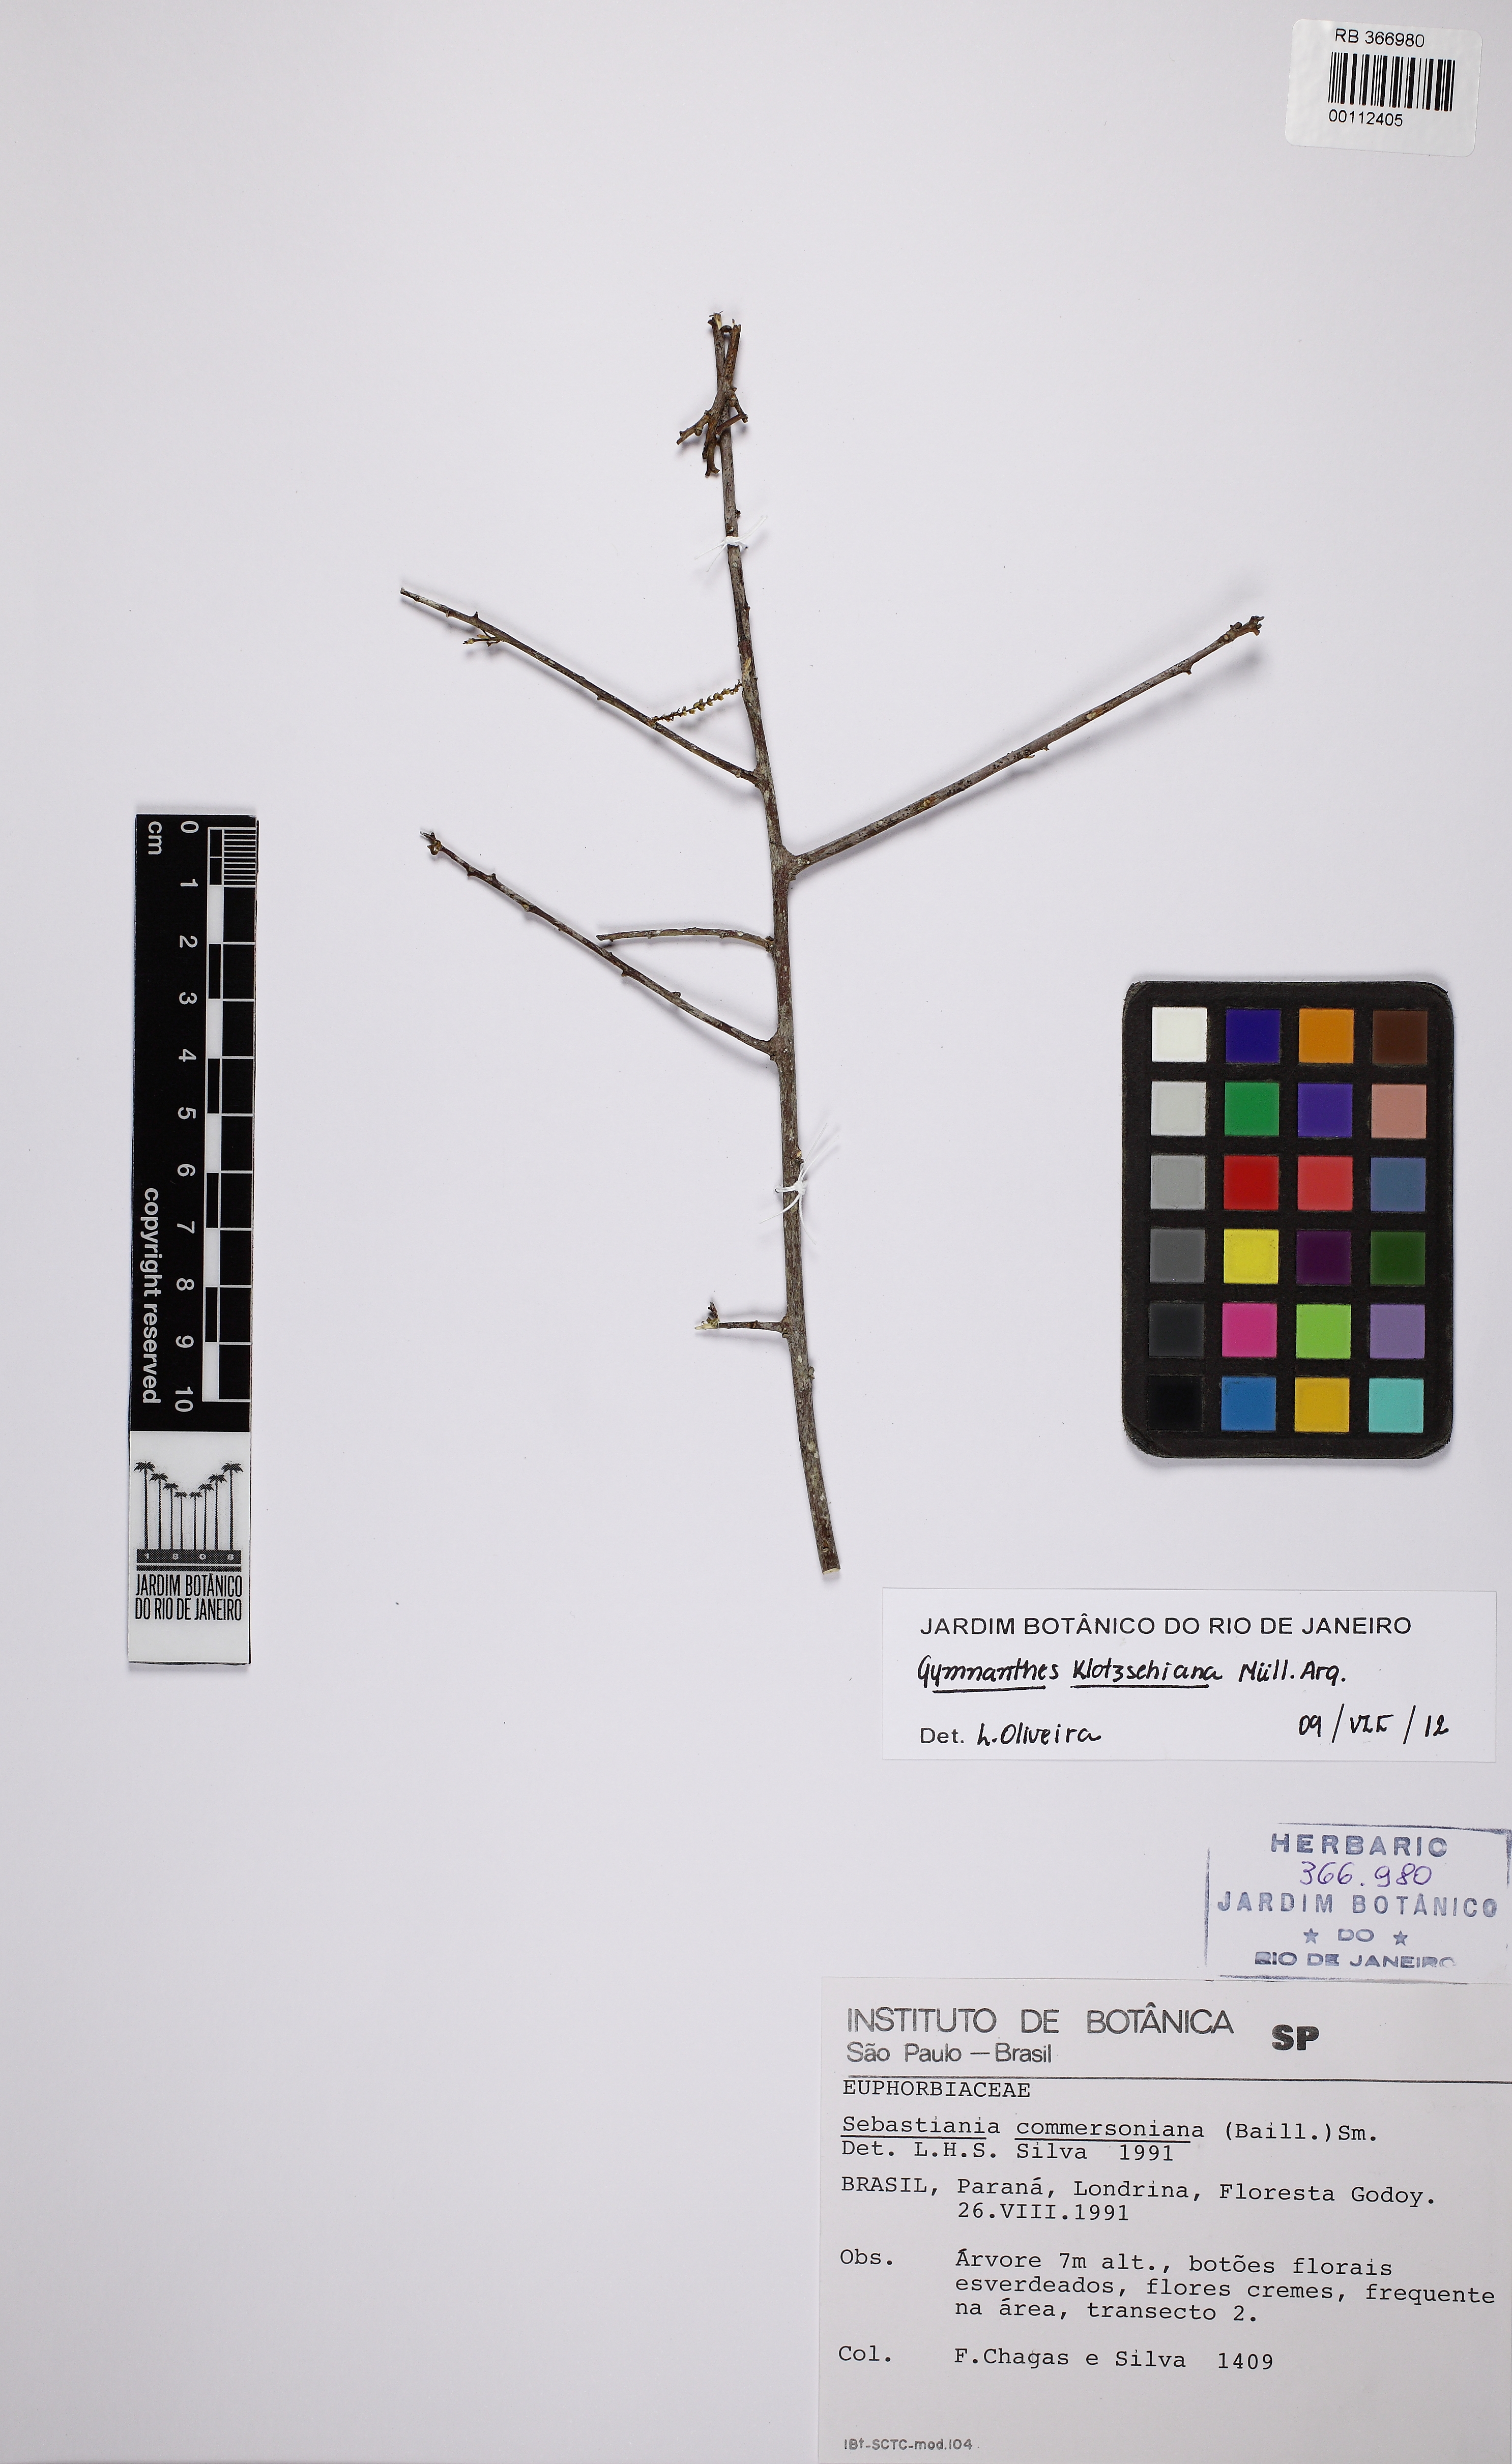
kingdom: Plantae
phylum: Tracheophyta
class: Magnoliopsida
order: Malpighiales
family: Euphorbiaceae
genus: Sebastiania
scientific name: Sebastiania serrata
